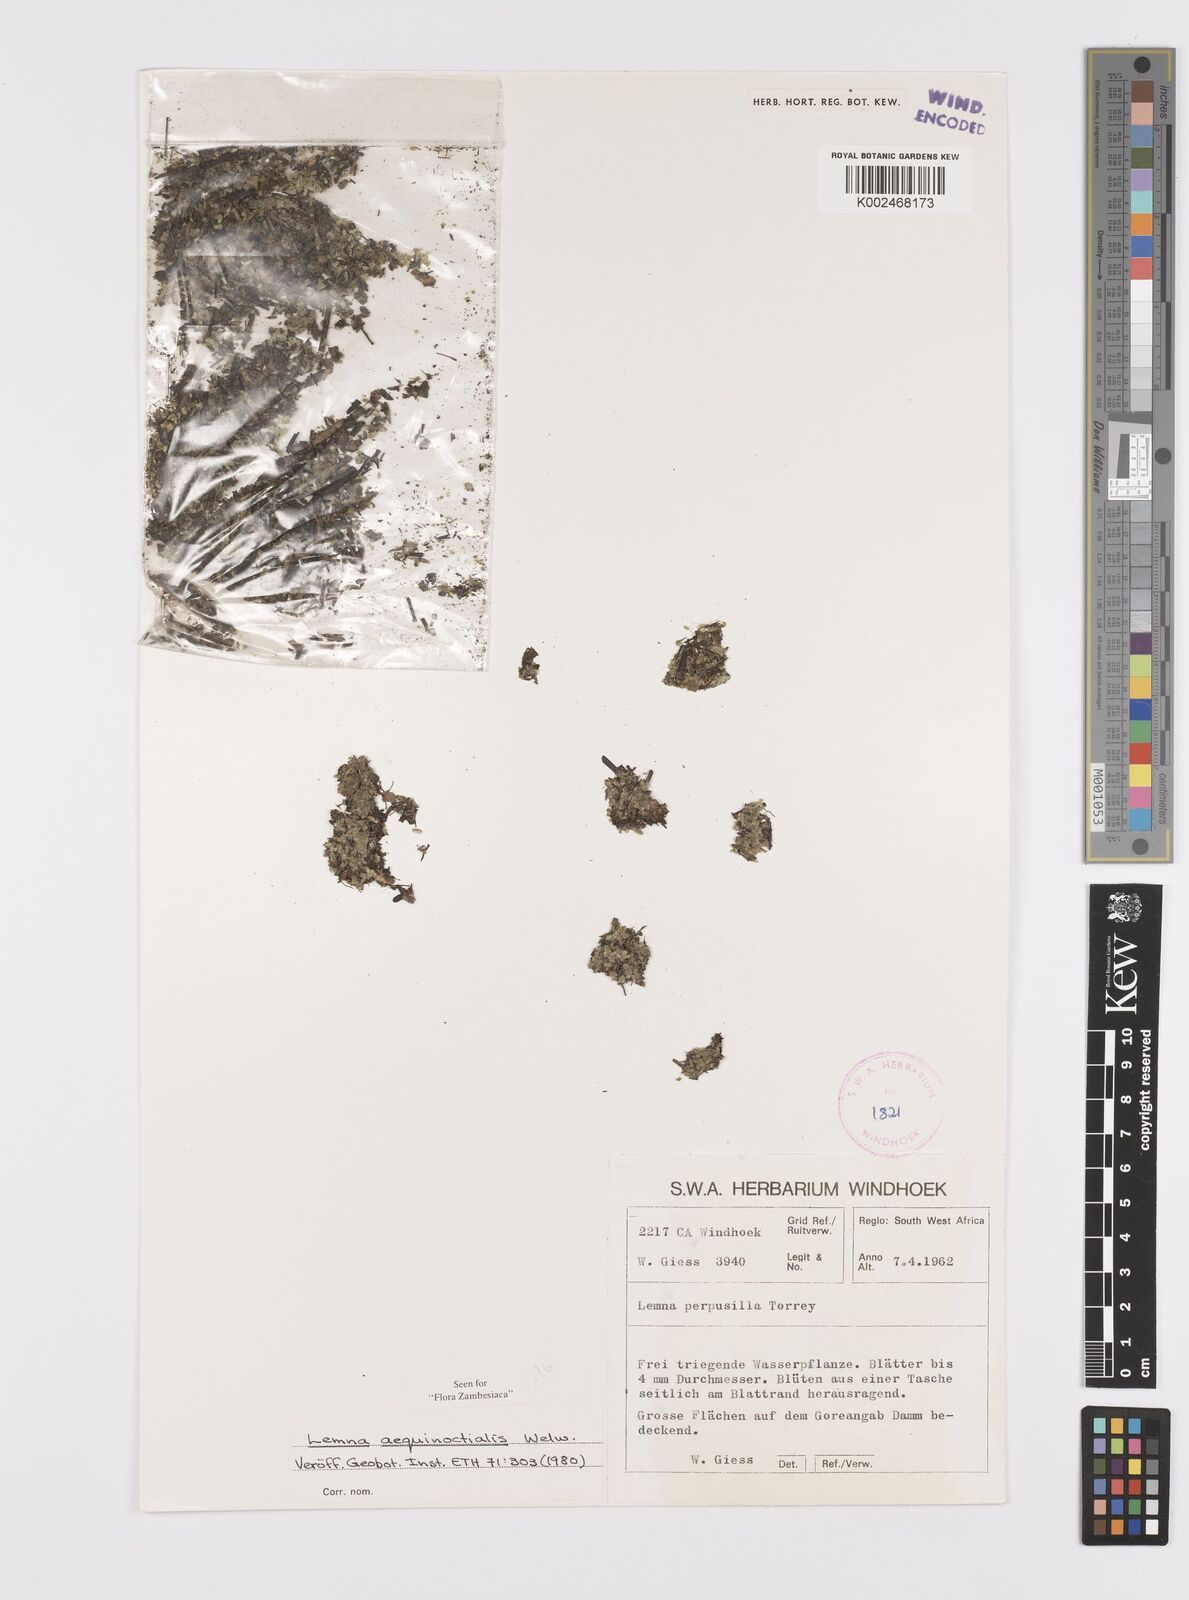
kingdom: Plantae
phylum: Tracheophyta
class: Liliopsida
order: Alismatales
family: Araceae
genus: Lemna
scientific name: Lemna perpusilla
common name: Duckweed
